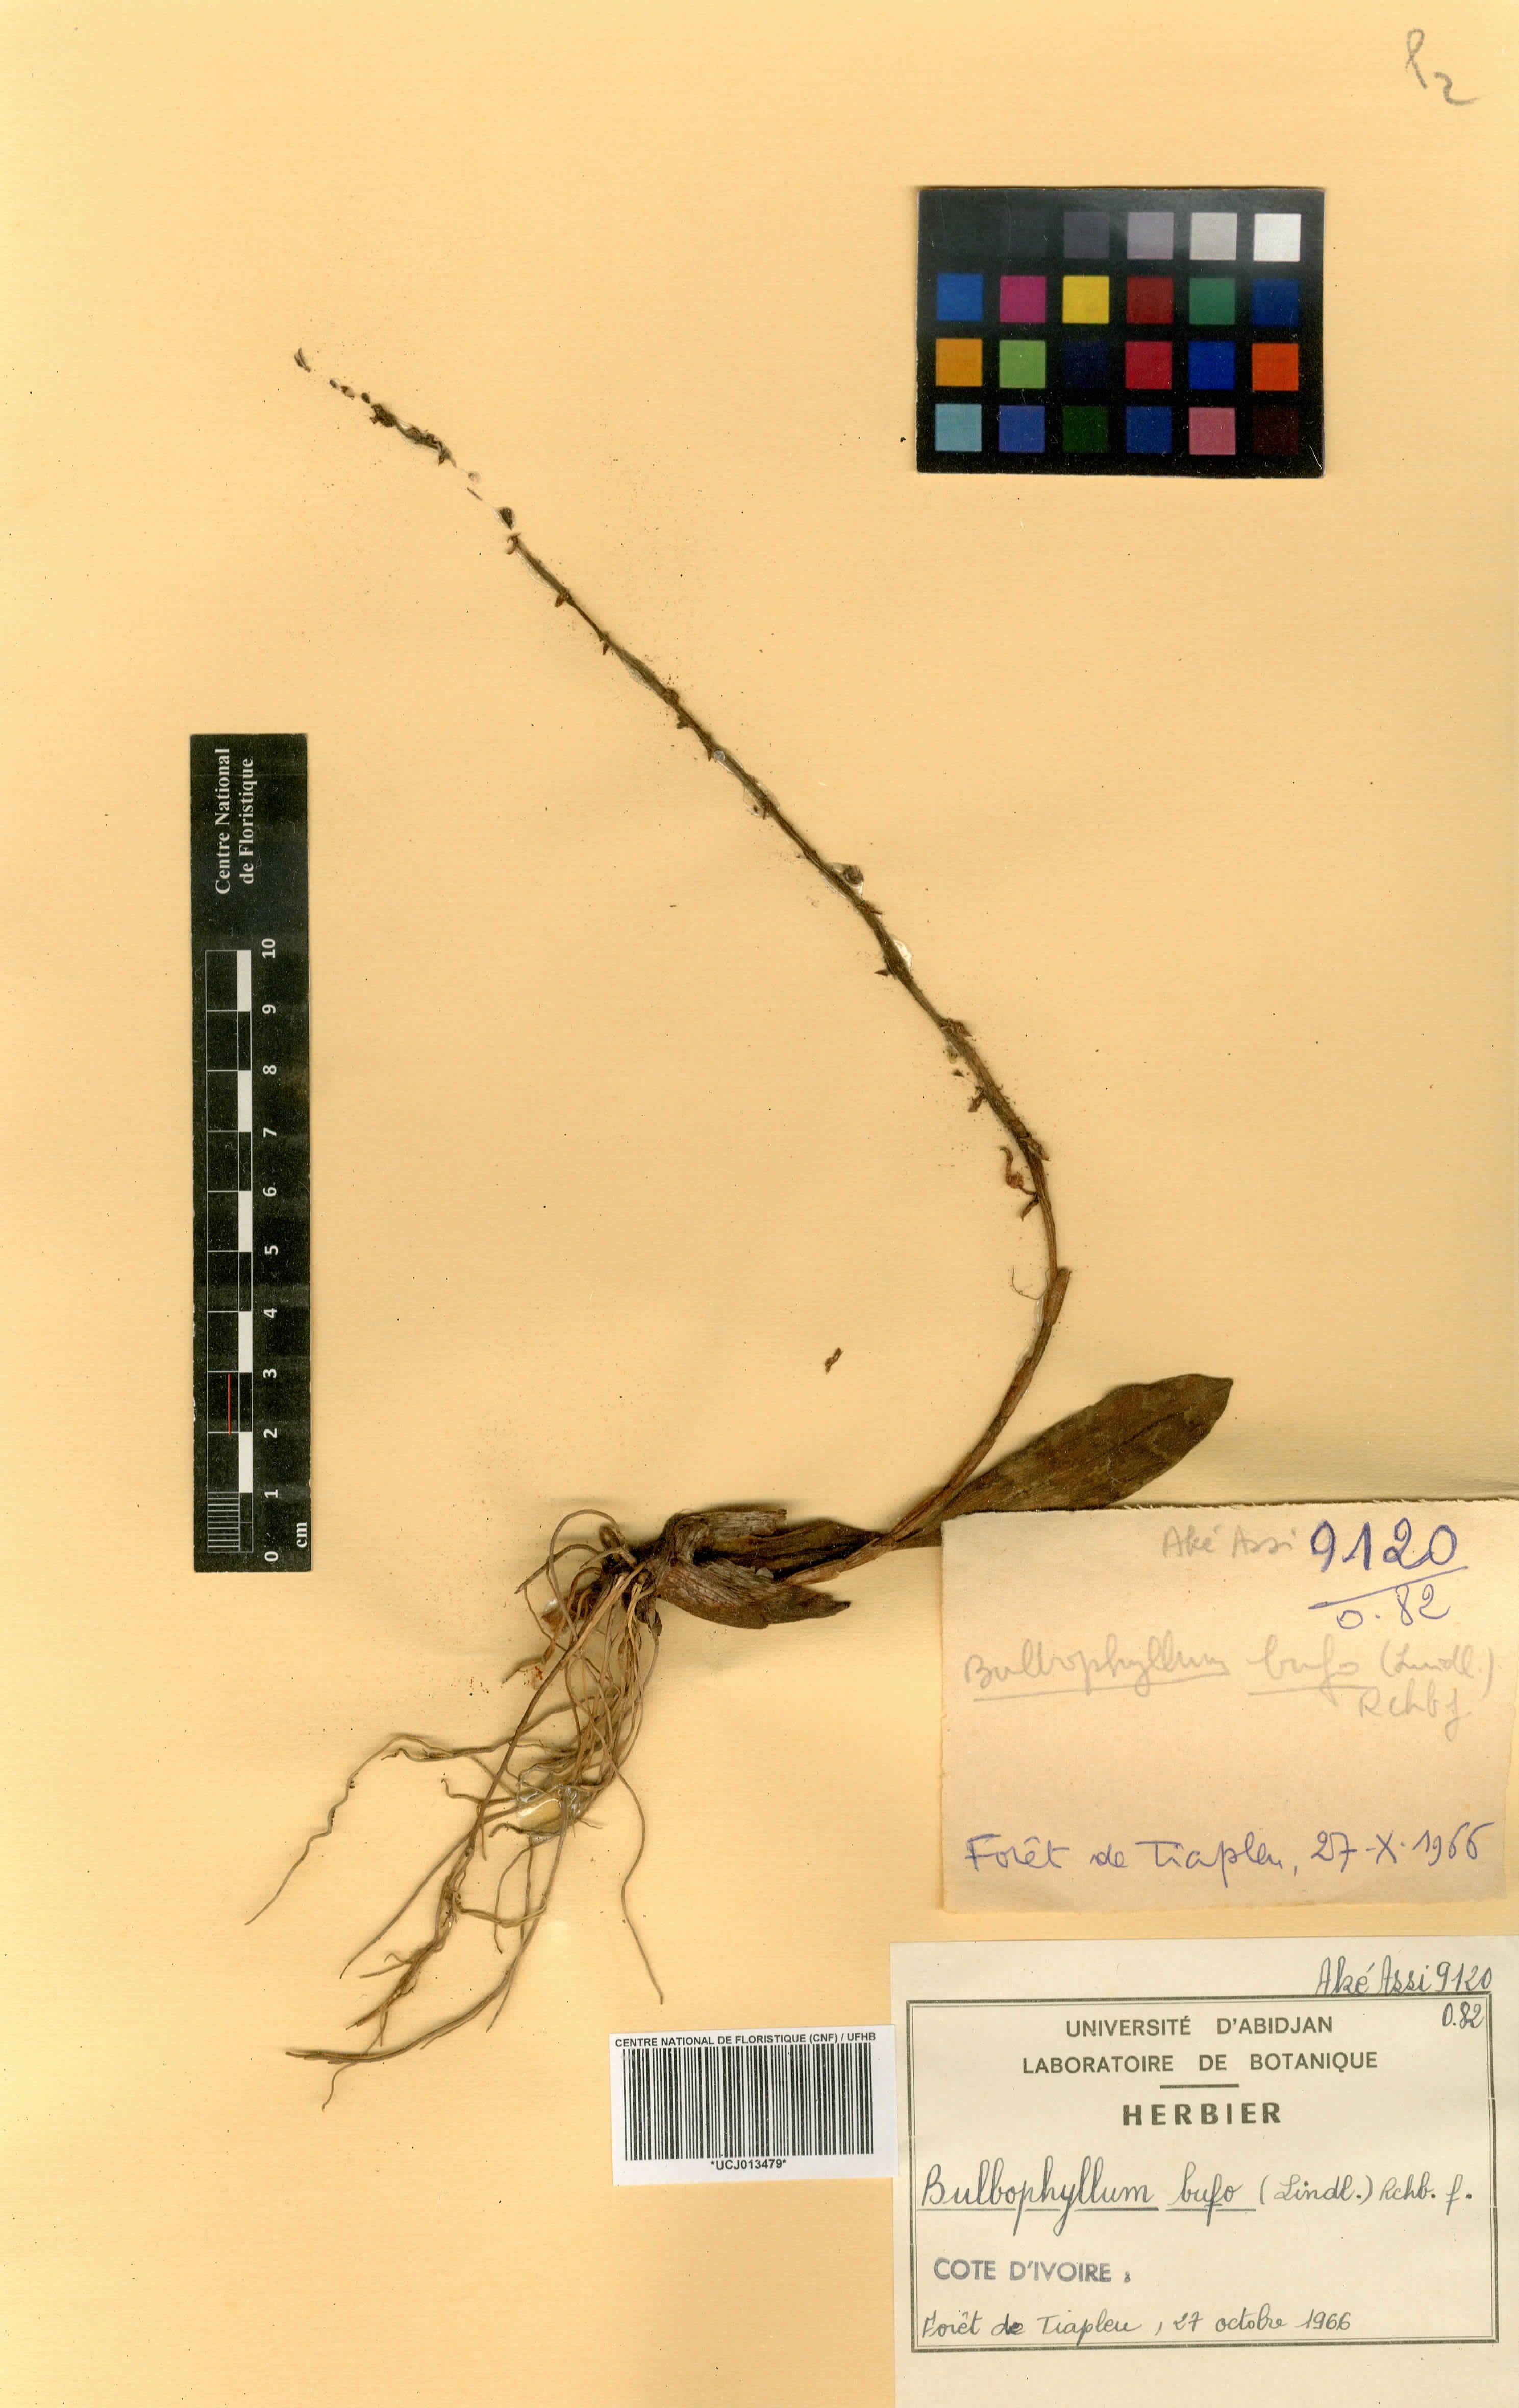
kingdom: Plantae
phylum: Tracheophyta
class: Liliopsida
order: Asparagales
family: Orchidaceae
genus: Bulbophyllum
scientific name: Bulbophyllum falcatum
